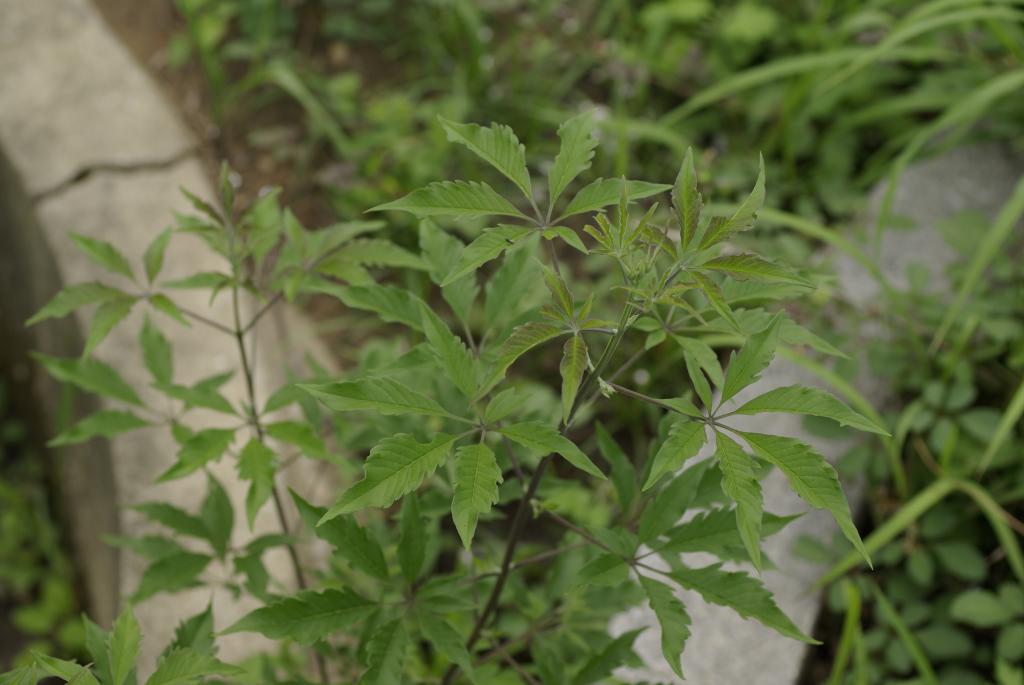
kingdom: Plantae
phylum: Tracheophyta
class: Magnoliopsida
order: Lamiales
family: Lamiaceae
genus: Vitex
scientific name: Vitex negundo
